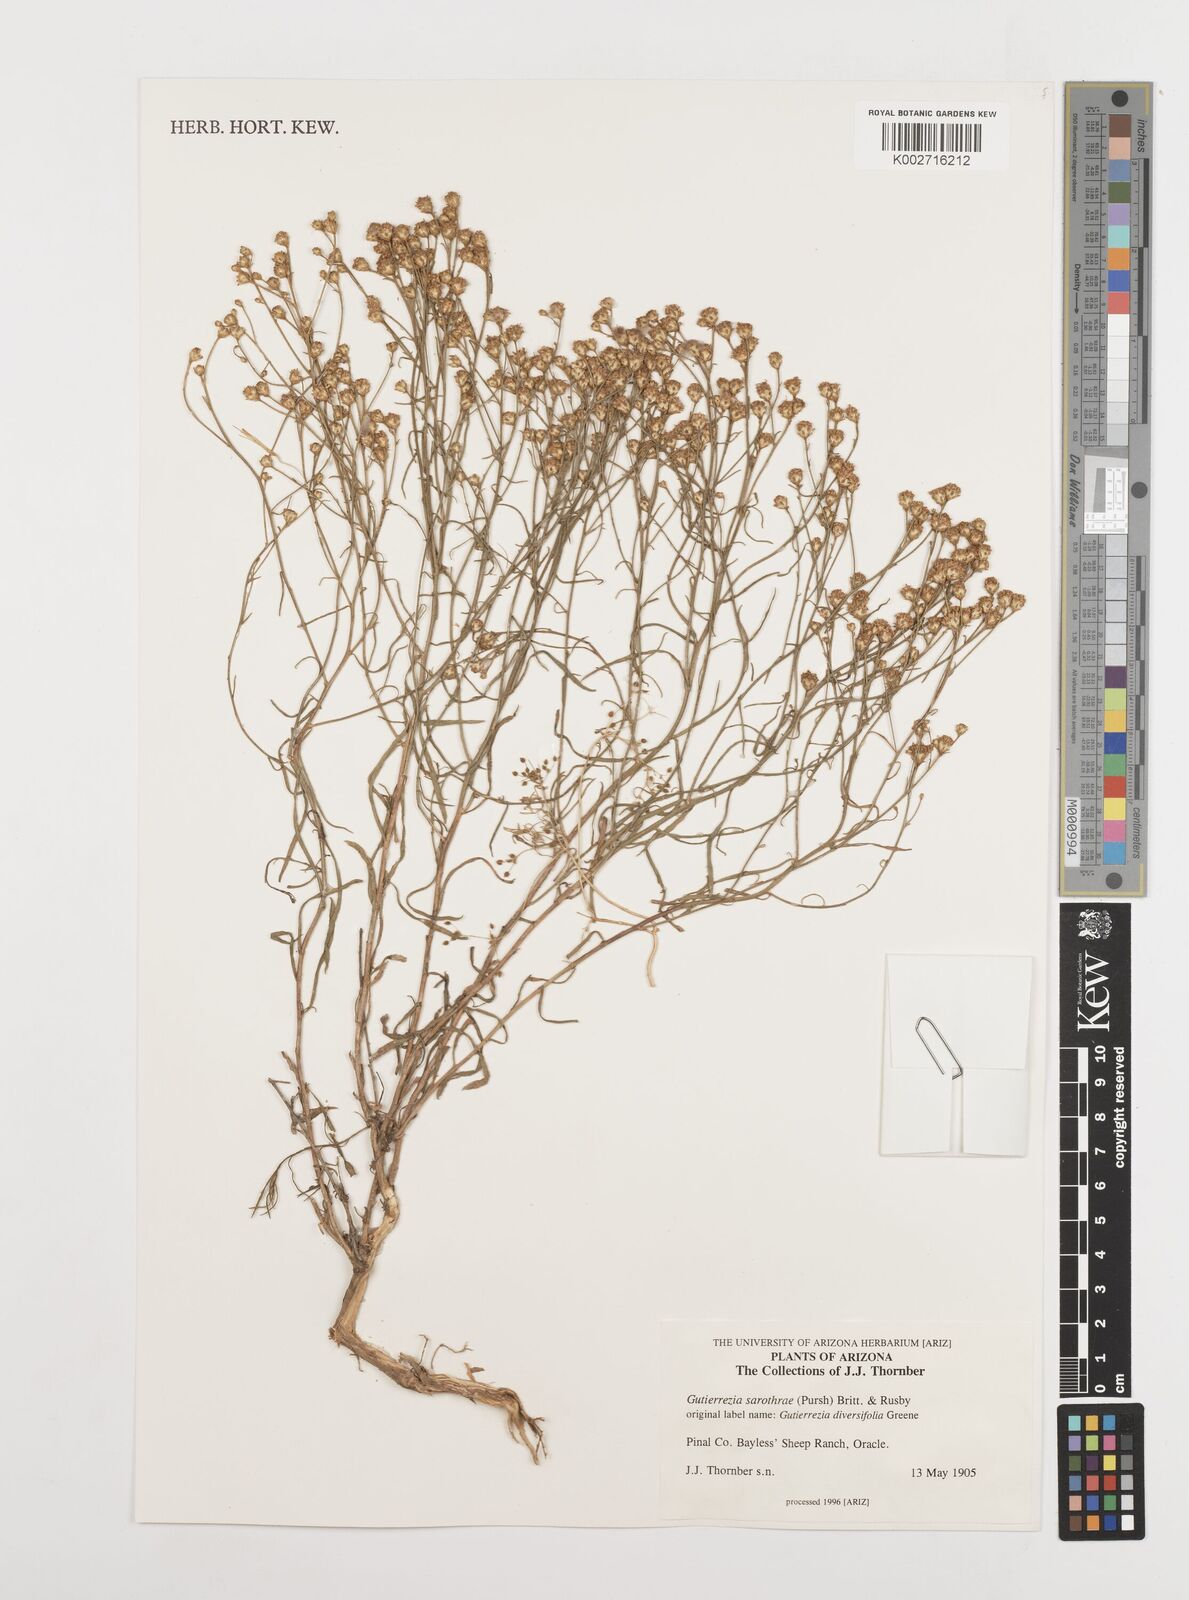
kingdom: Plantae
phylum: Tracheophyta
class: Magnoliopsida
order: Asterales
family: Asteraceae
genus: Gutierrezia
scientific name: Gutierrezia sarothrae
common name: Broom snakeweed
